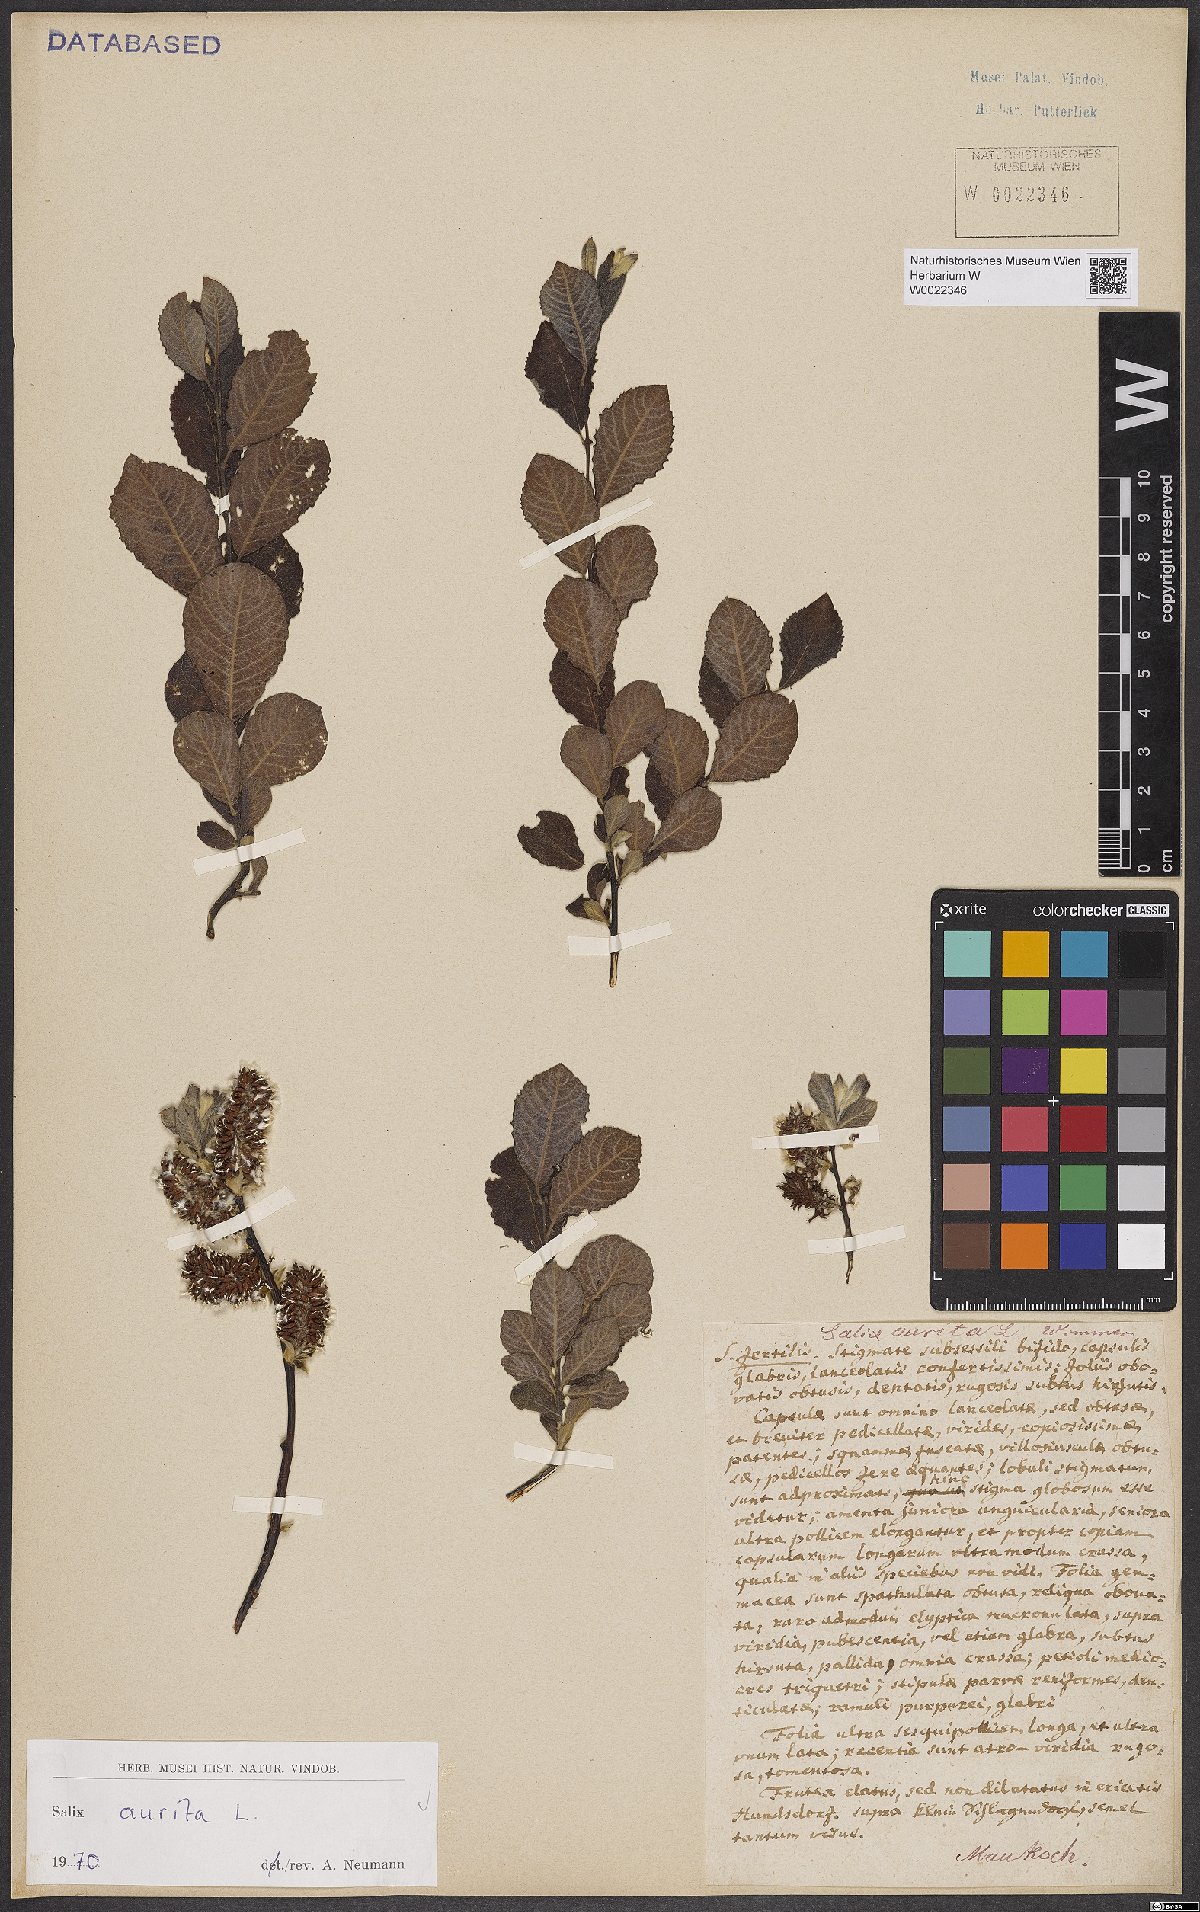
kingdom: Plantae
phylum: Tracheophyta
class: Magnoliopsida
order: Malpighiales
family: Salicaceae
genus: Salix
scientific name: Salix aurita
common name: Eared willow
